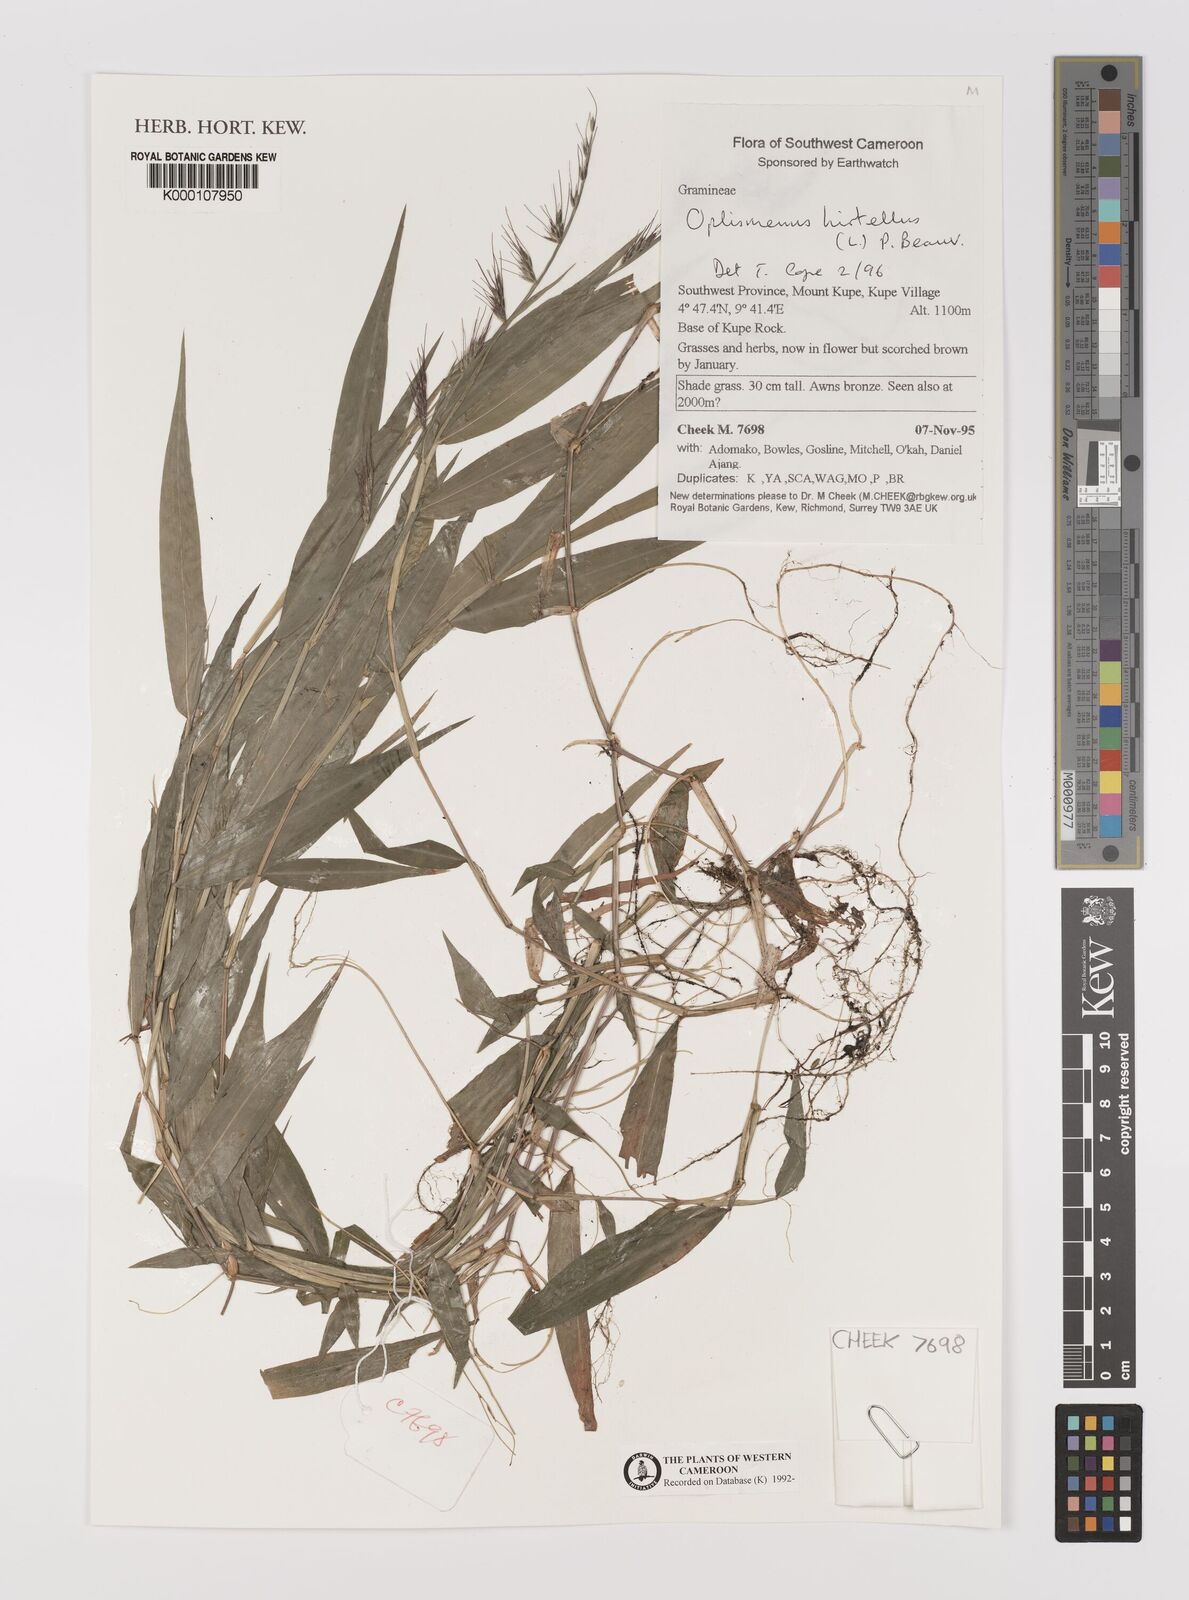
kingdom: Plantae
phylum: Tracheophyta
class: Liliopsida
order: Poales
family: Poaceae
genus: Oplismenus
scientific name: Oplismenus hirtellus
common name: Basketgrass
